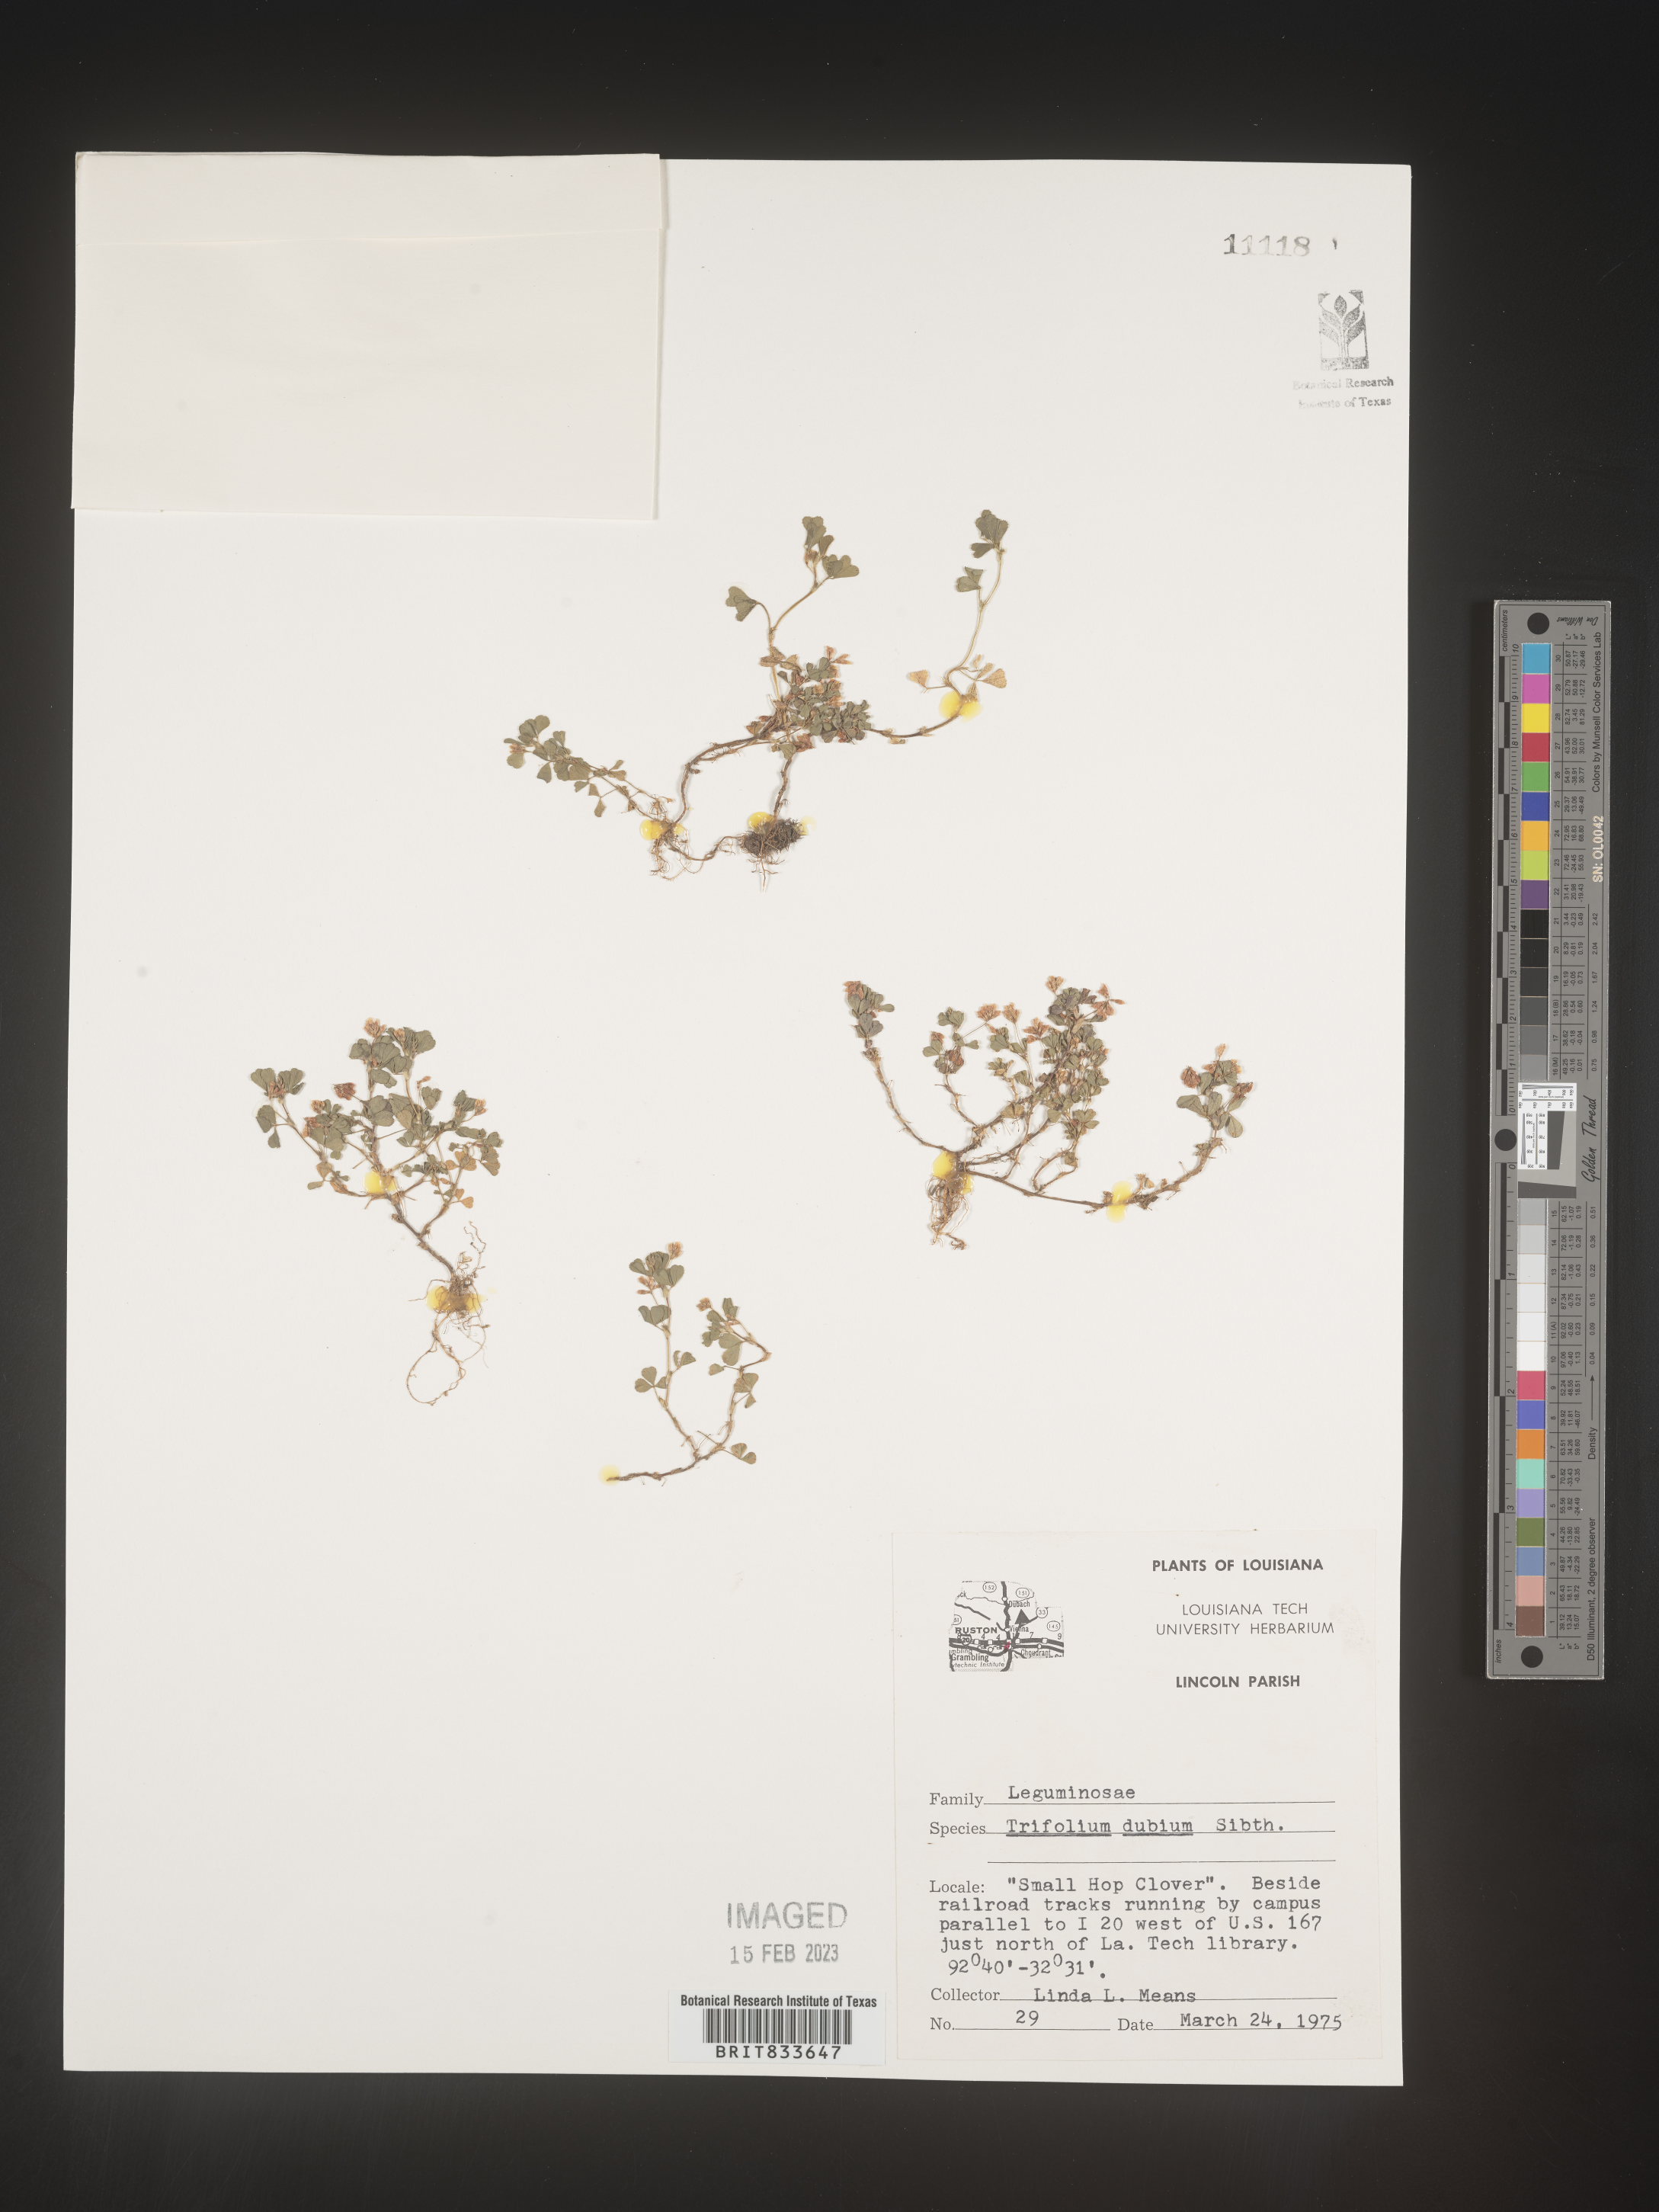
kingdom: Plantae
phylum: Tracheophyta
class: Magnoliopsida
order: Fabales
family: Fabaceae
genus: Trifolium
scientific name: Trifolium dubium
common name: Suckling clover
